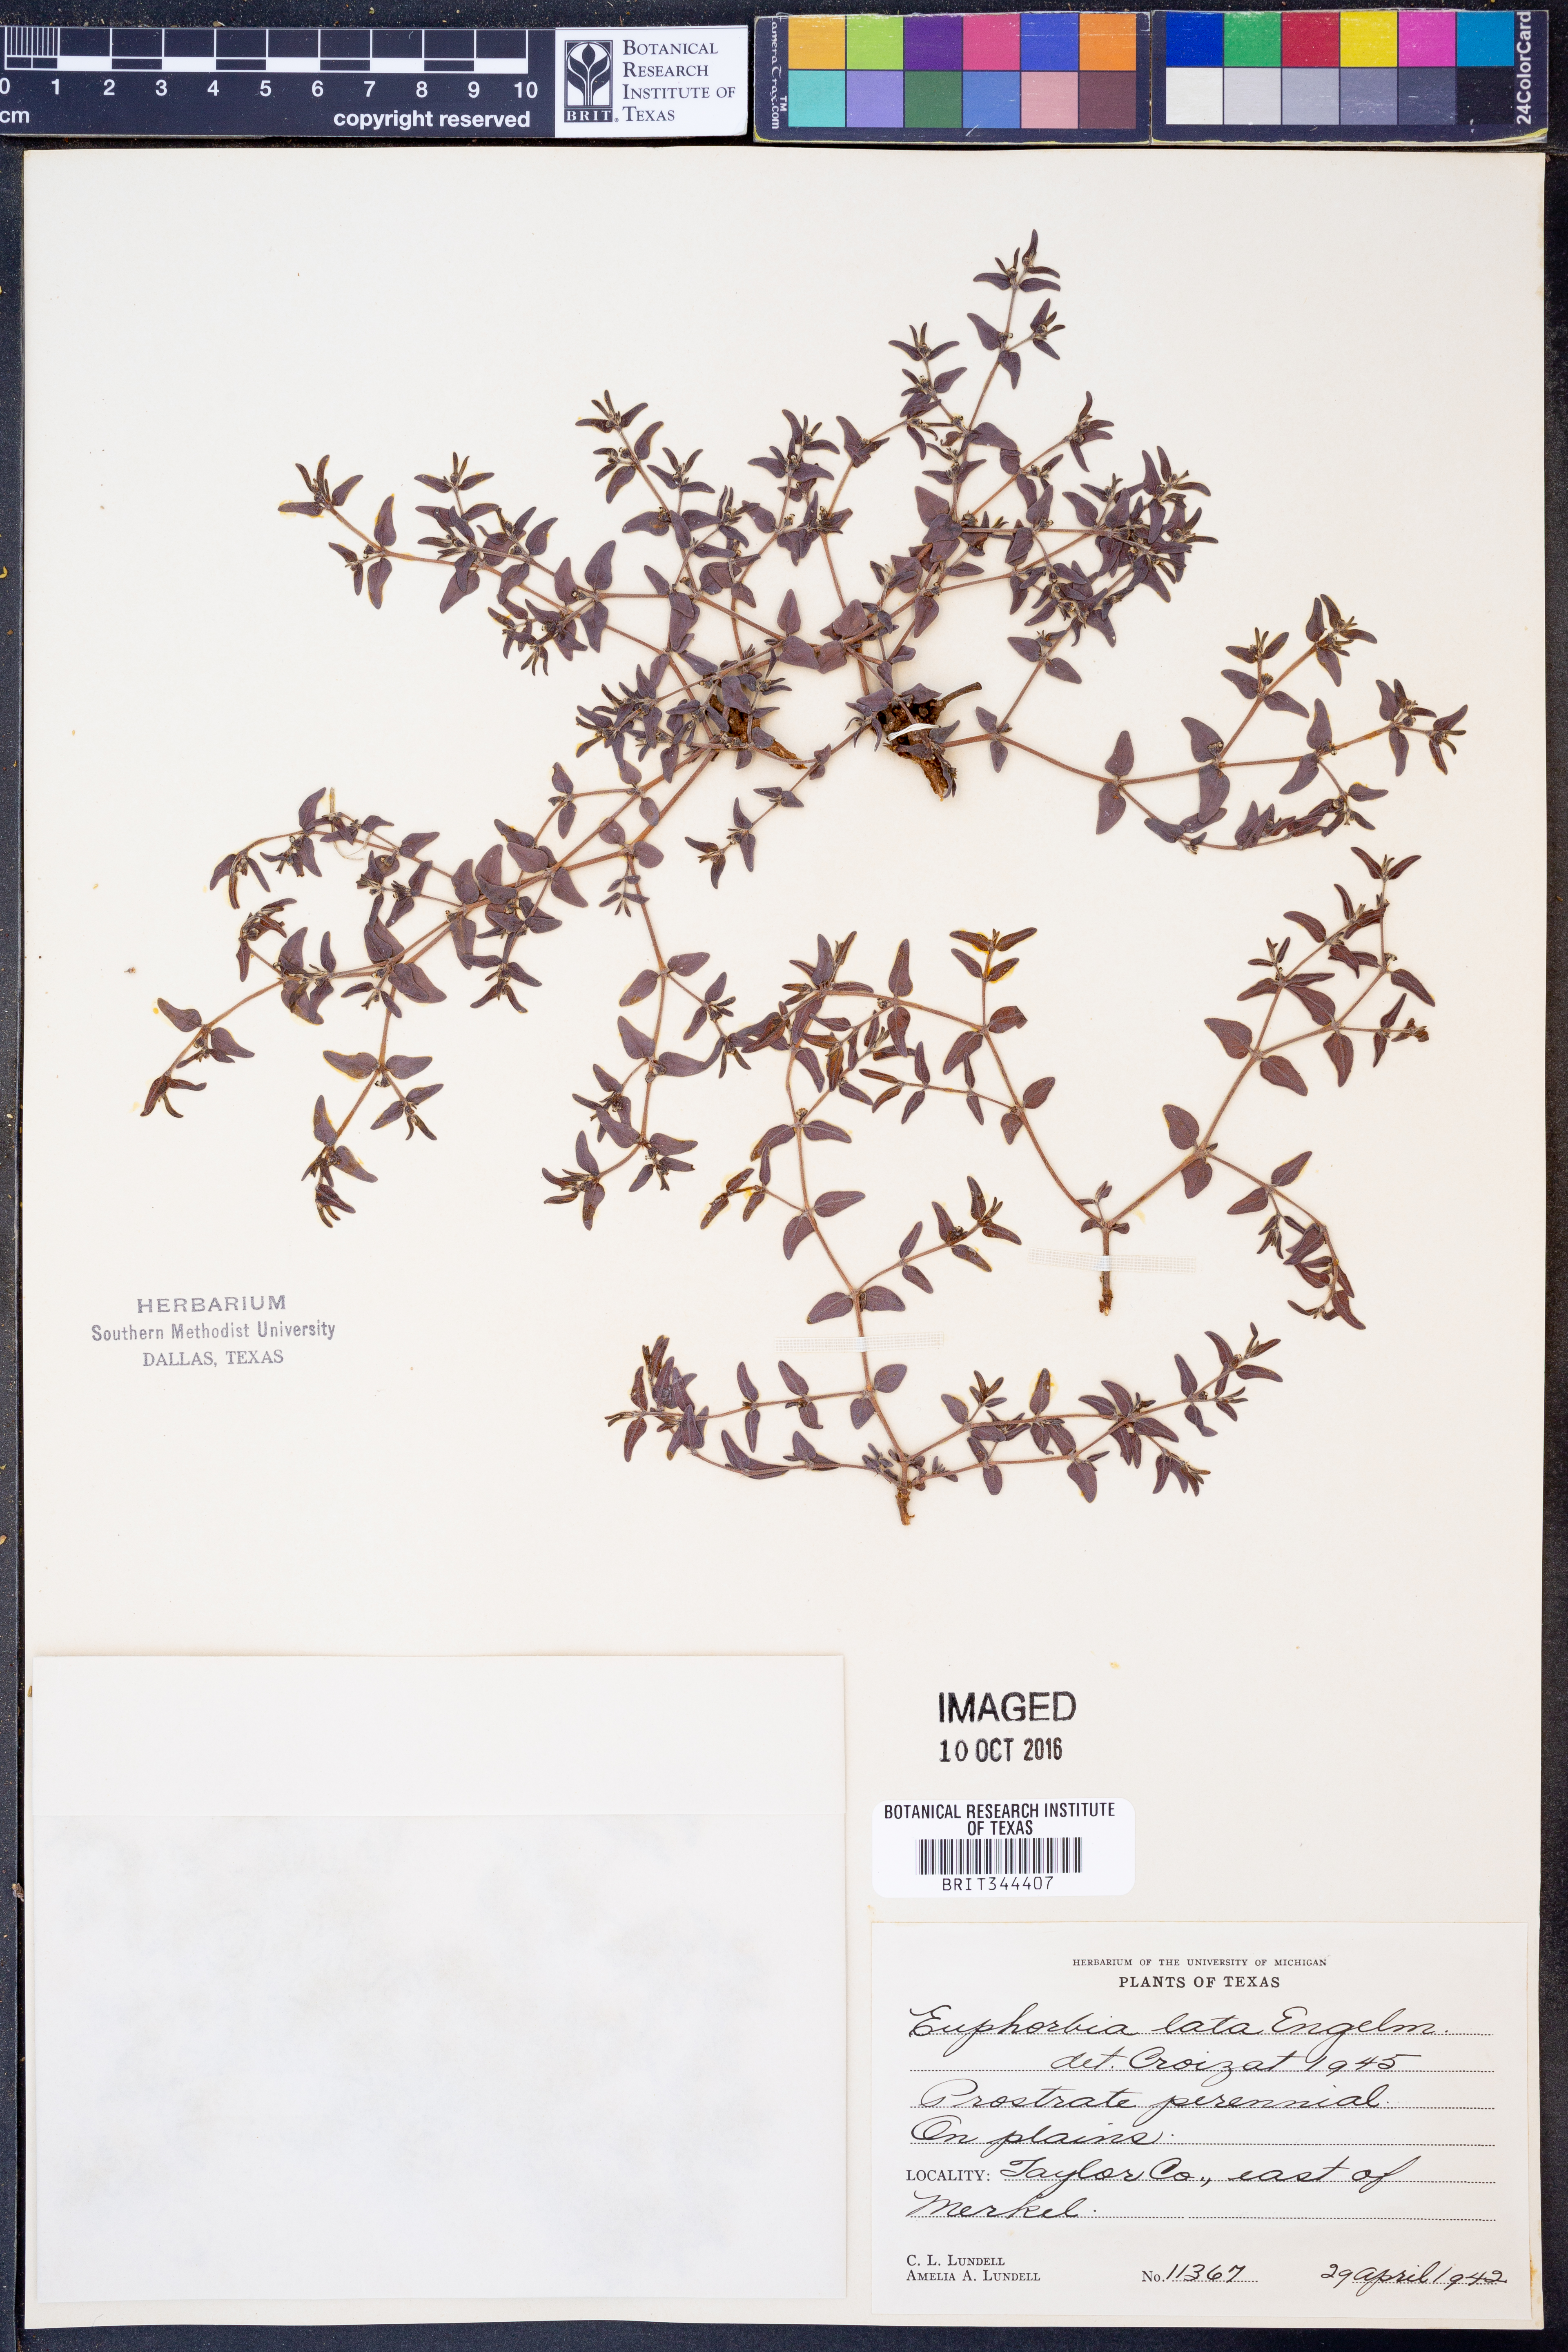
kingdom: Plantae
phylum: Tracheophyta
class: Magnoliopsida
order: Malpighiales
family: Euphorbiaceae
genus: Euphorbia
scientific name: Euphorbia lata
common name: Hoary euphorbia
